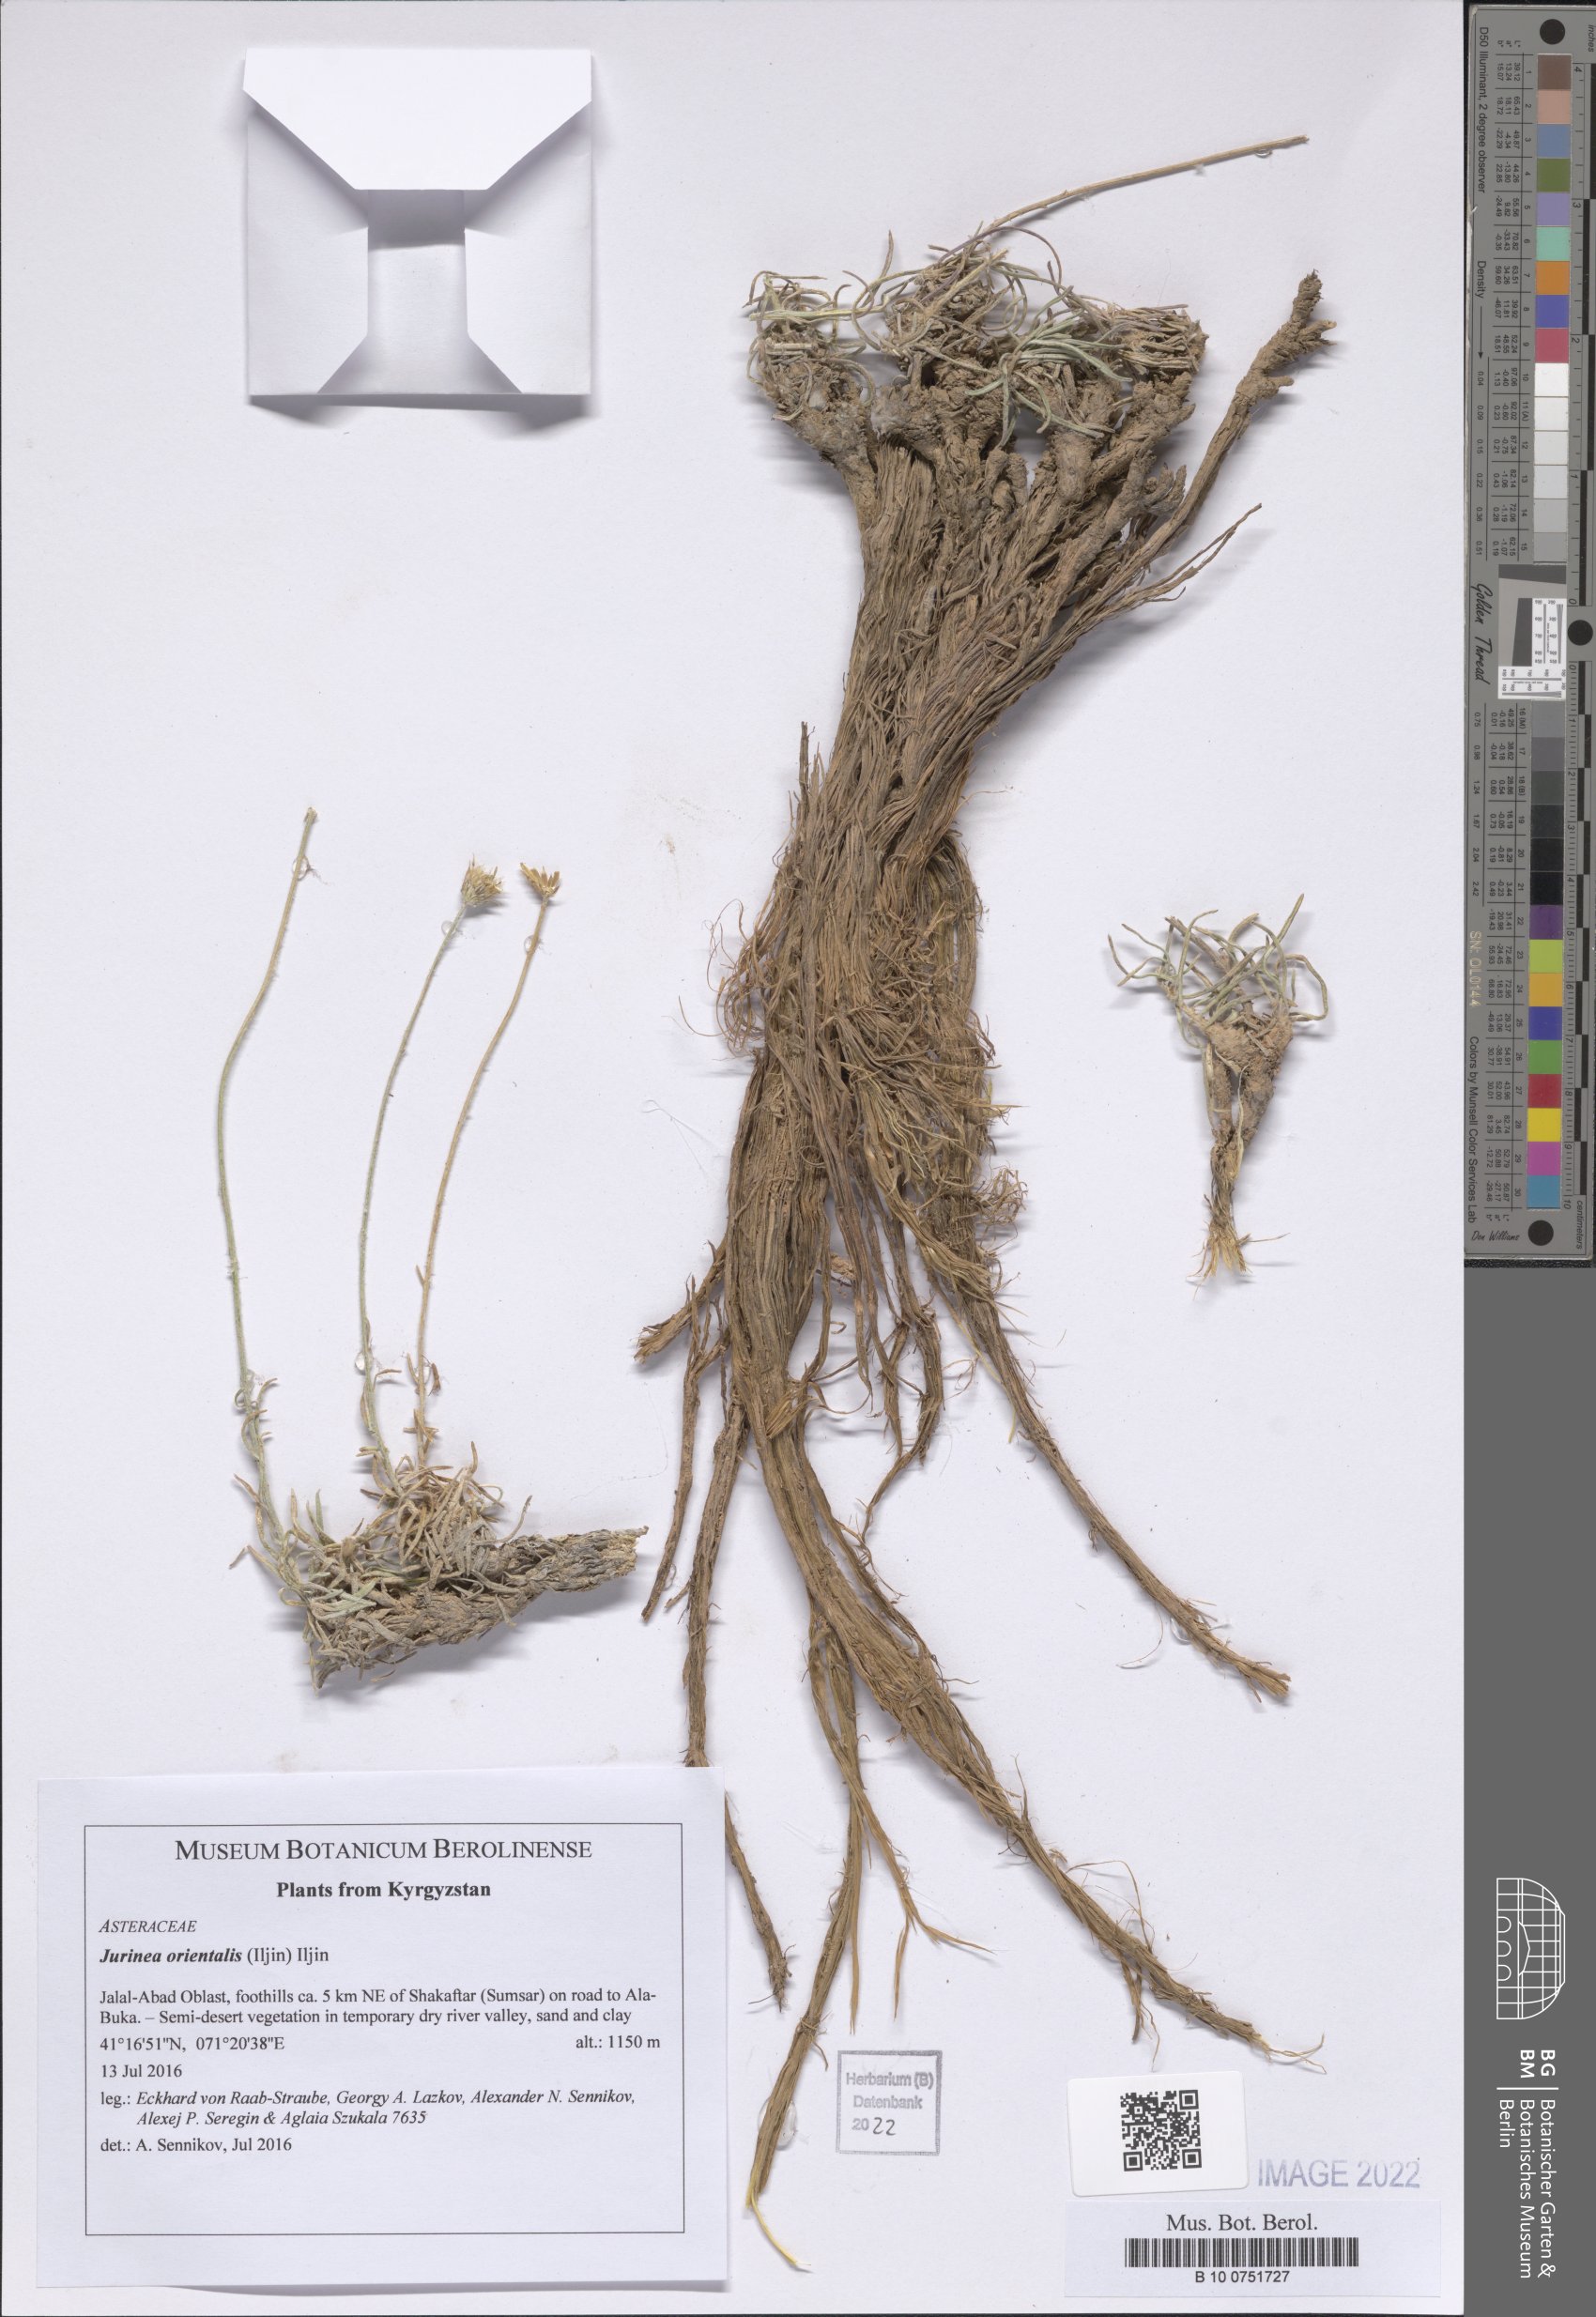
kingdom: Plantae
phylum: Tracheophyta
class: Magnoliopsida
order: Asterales
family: Asteraceae
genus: Jurinea
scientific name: Jurinea orientalis
